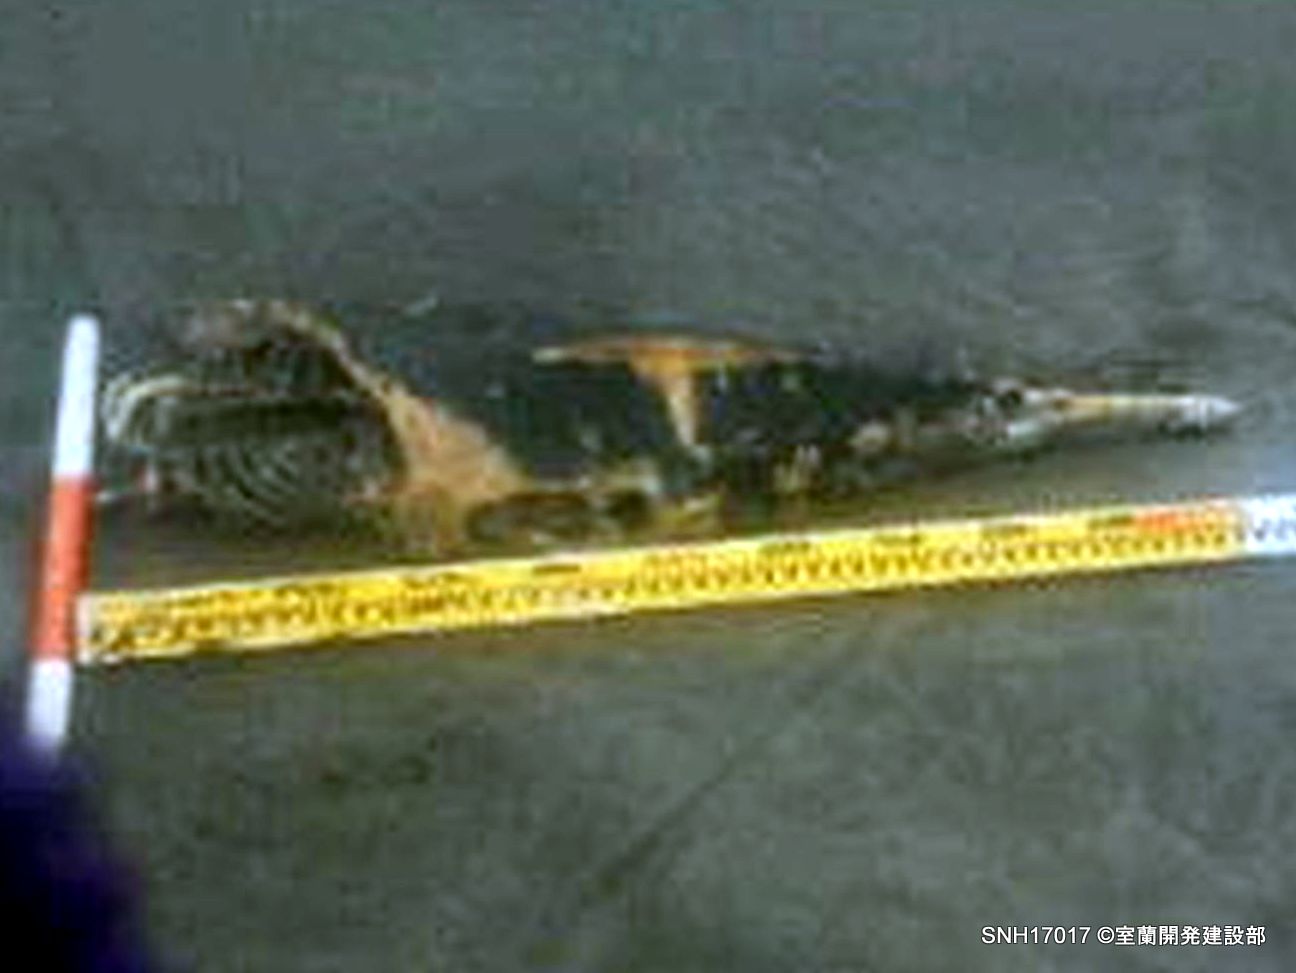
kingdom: Animalia
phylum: Chordata
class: Mammalia
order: Cetacea
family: Phocoenidae
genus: Phocoena
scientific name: Phocoena phocoena
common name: Harbour porpoise
